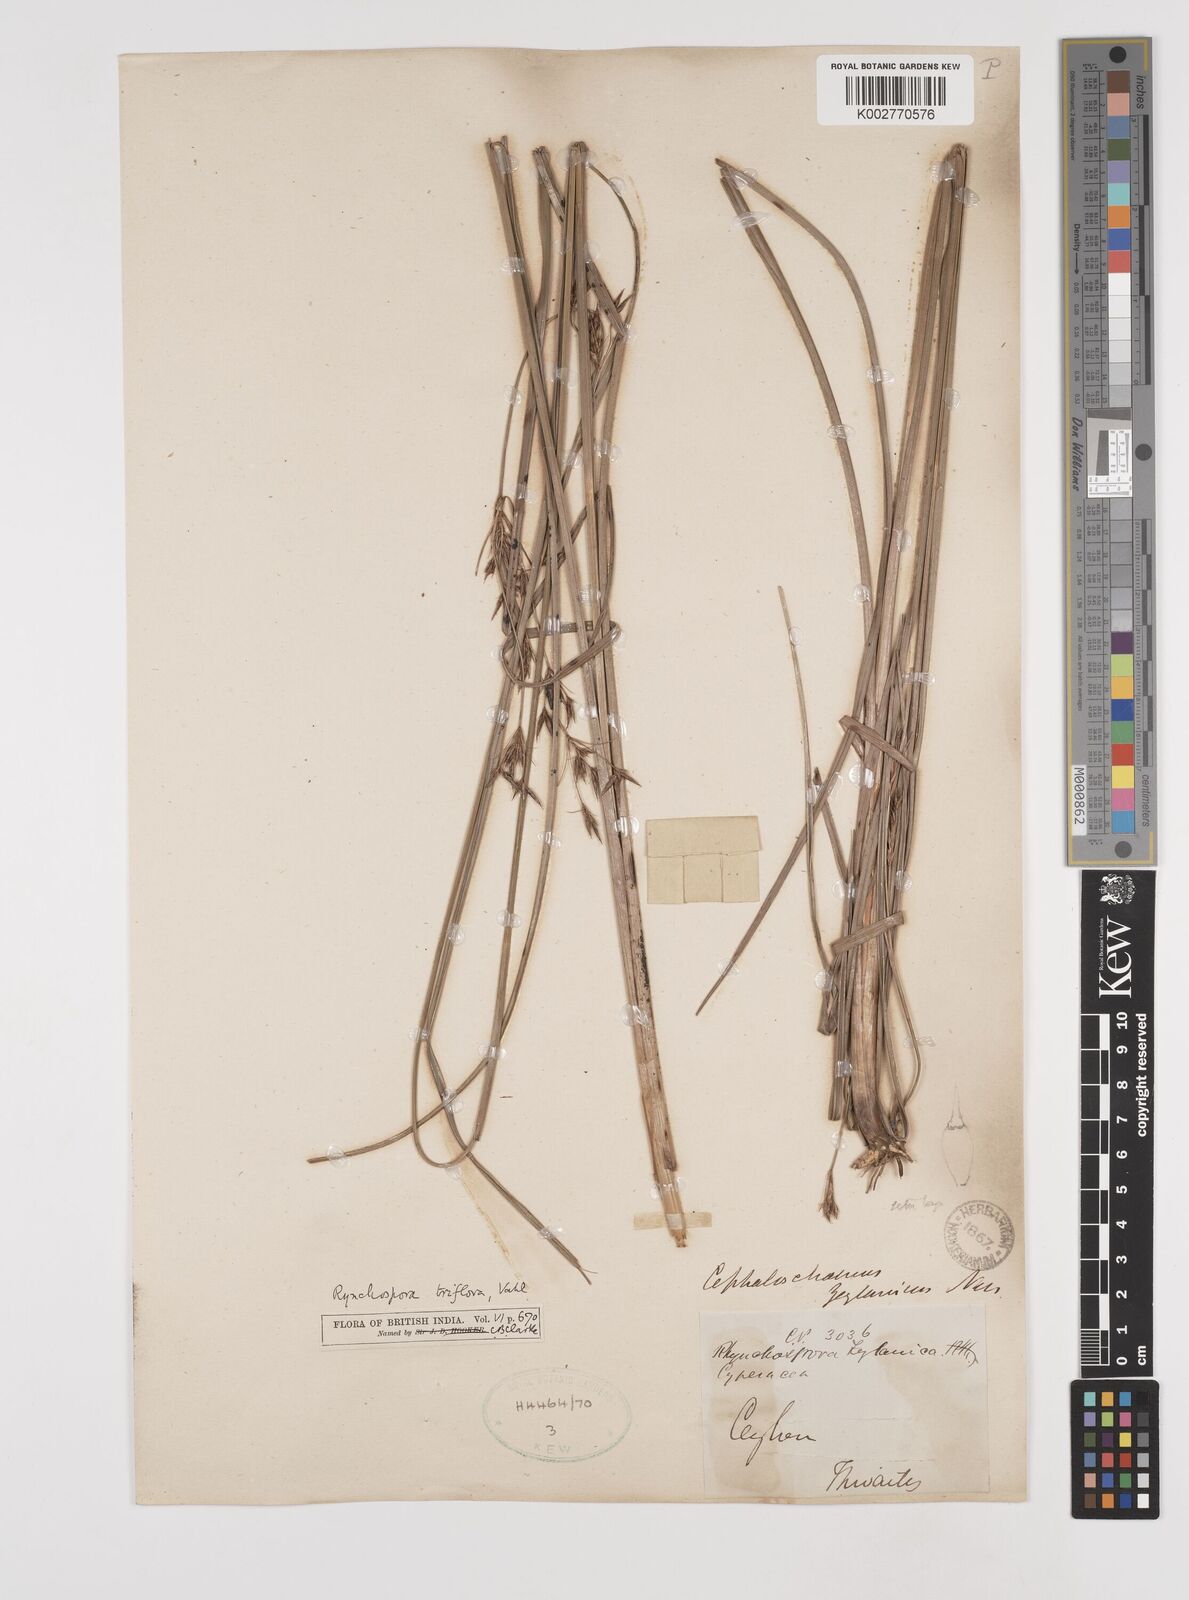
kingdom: Plantae
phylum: Tracheophyta
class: Liliopsida
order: Poales
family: Cyperaceae
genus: Rhynchospora
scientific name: Rhynchospora triflora
